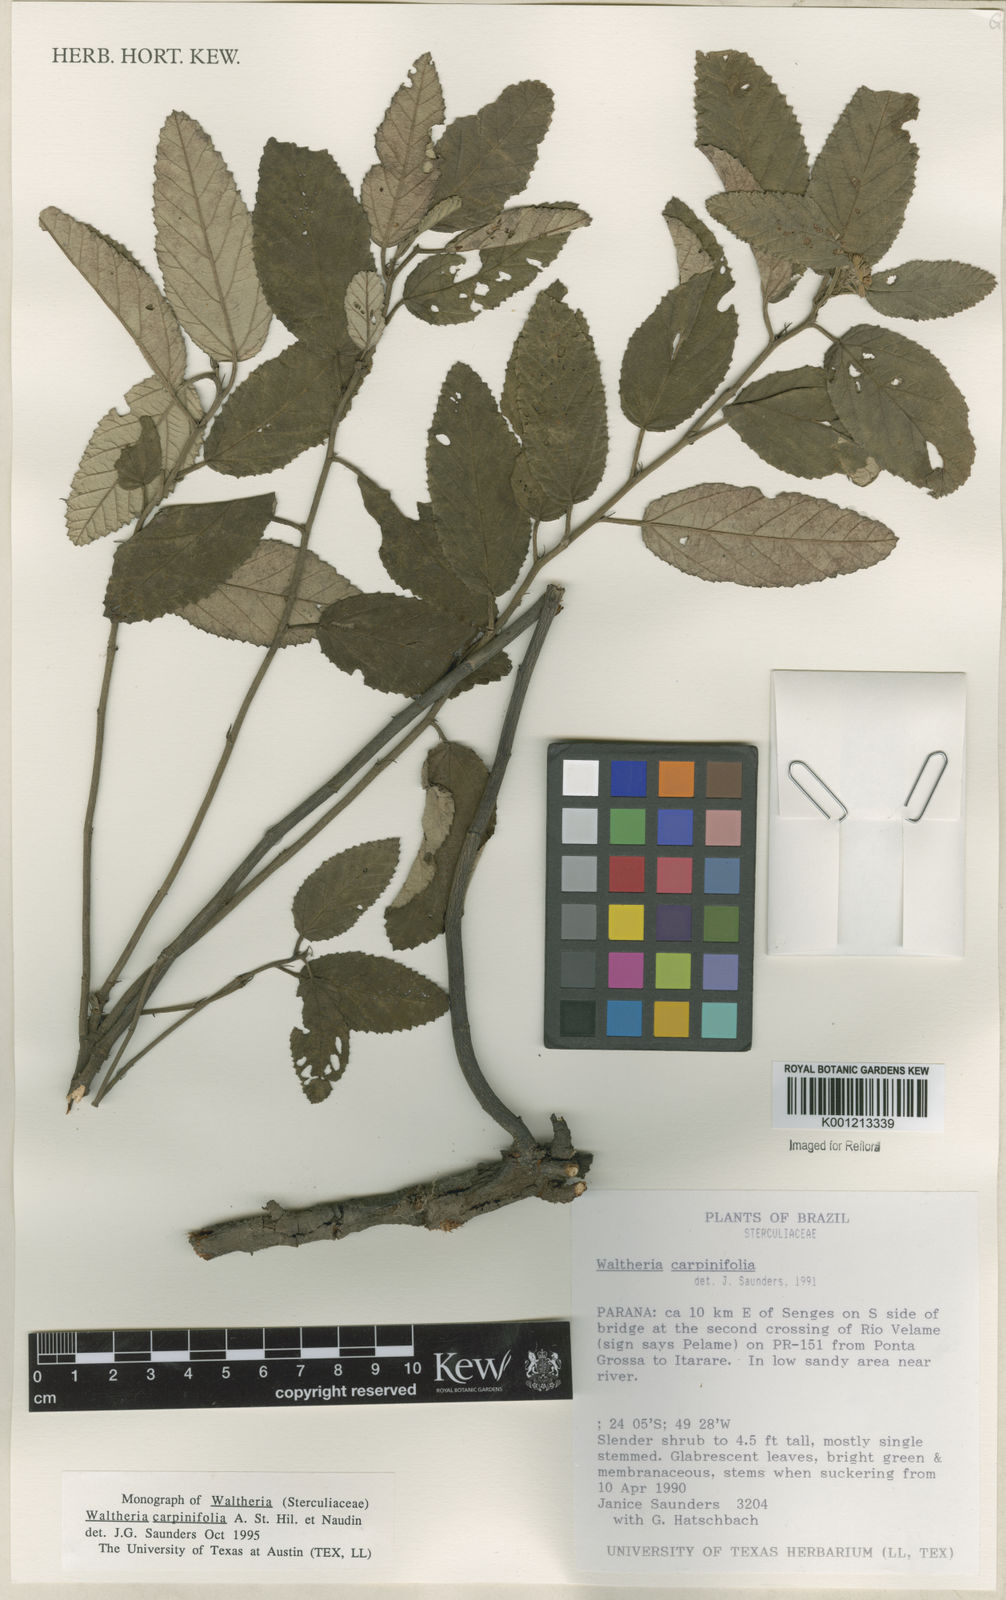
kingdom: Plantae
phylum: Tracheophyta
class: Magnoliopsida
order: Malvales
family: Malvaceae
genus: Waltheria
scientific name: Waltheria carpinifolia
